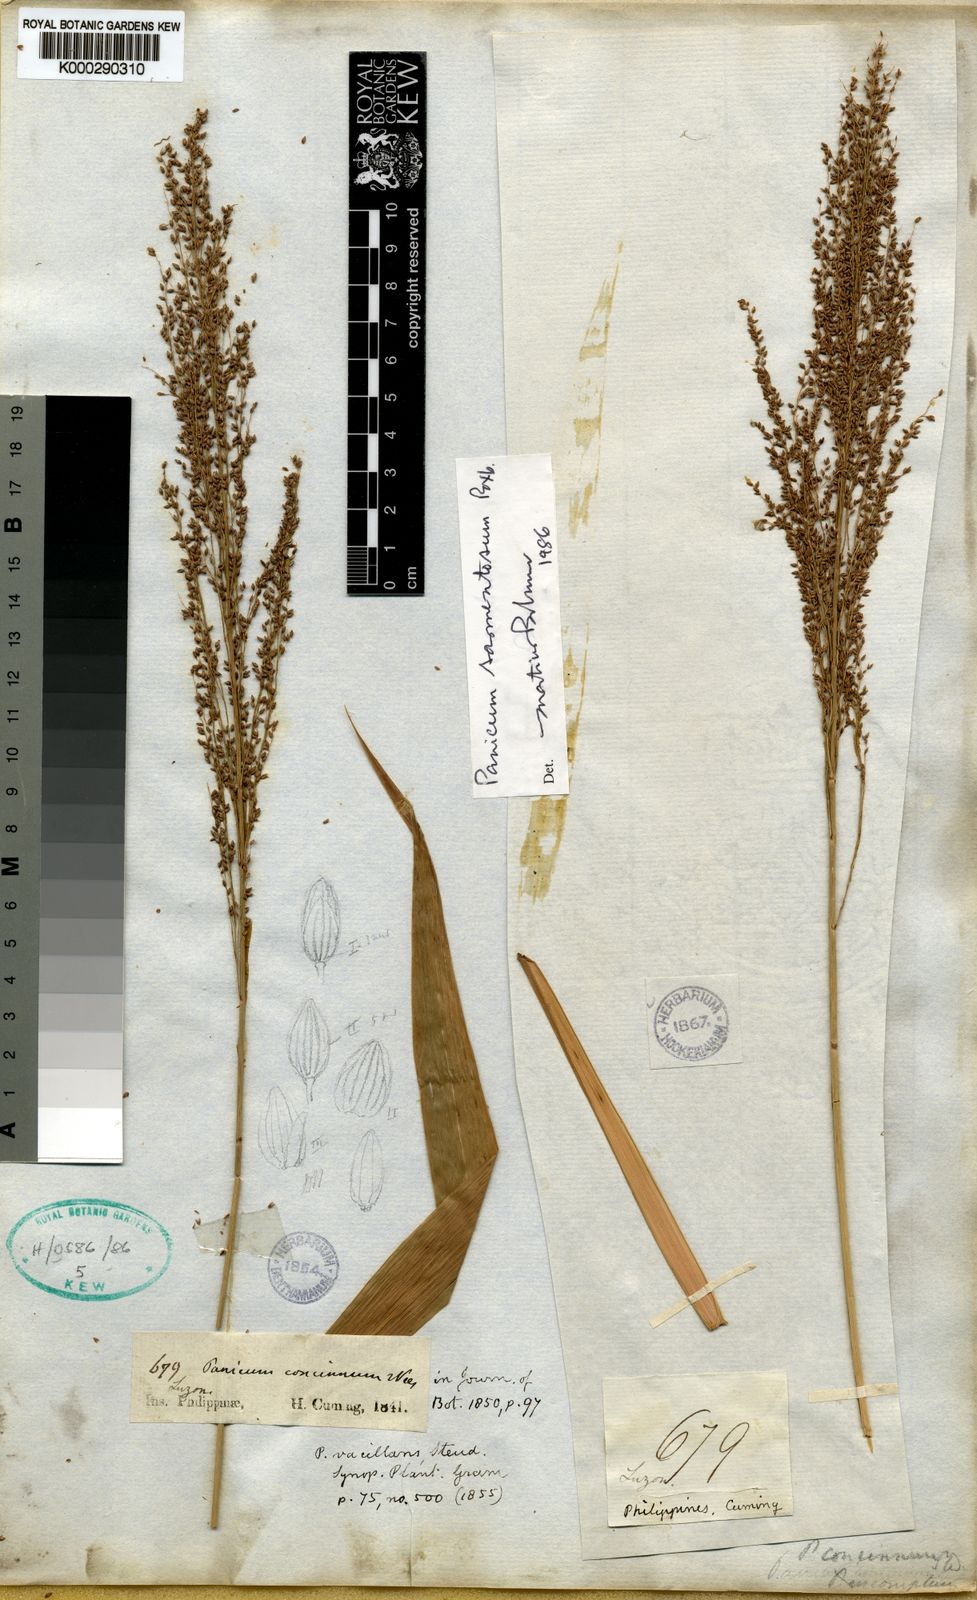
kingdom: Plantae
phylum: Tracheophyta
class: Liliopsida
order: Poales
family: Poaceae
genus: Panicum
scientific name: Panicum sarmentosum
